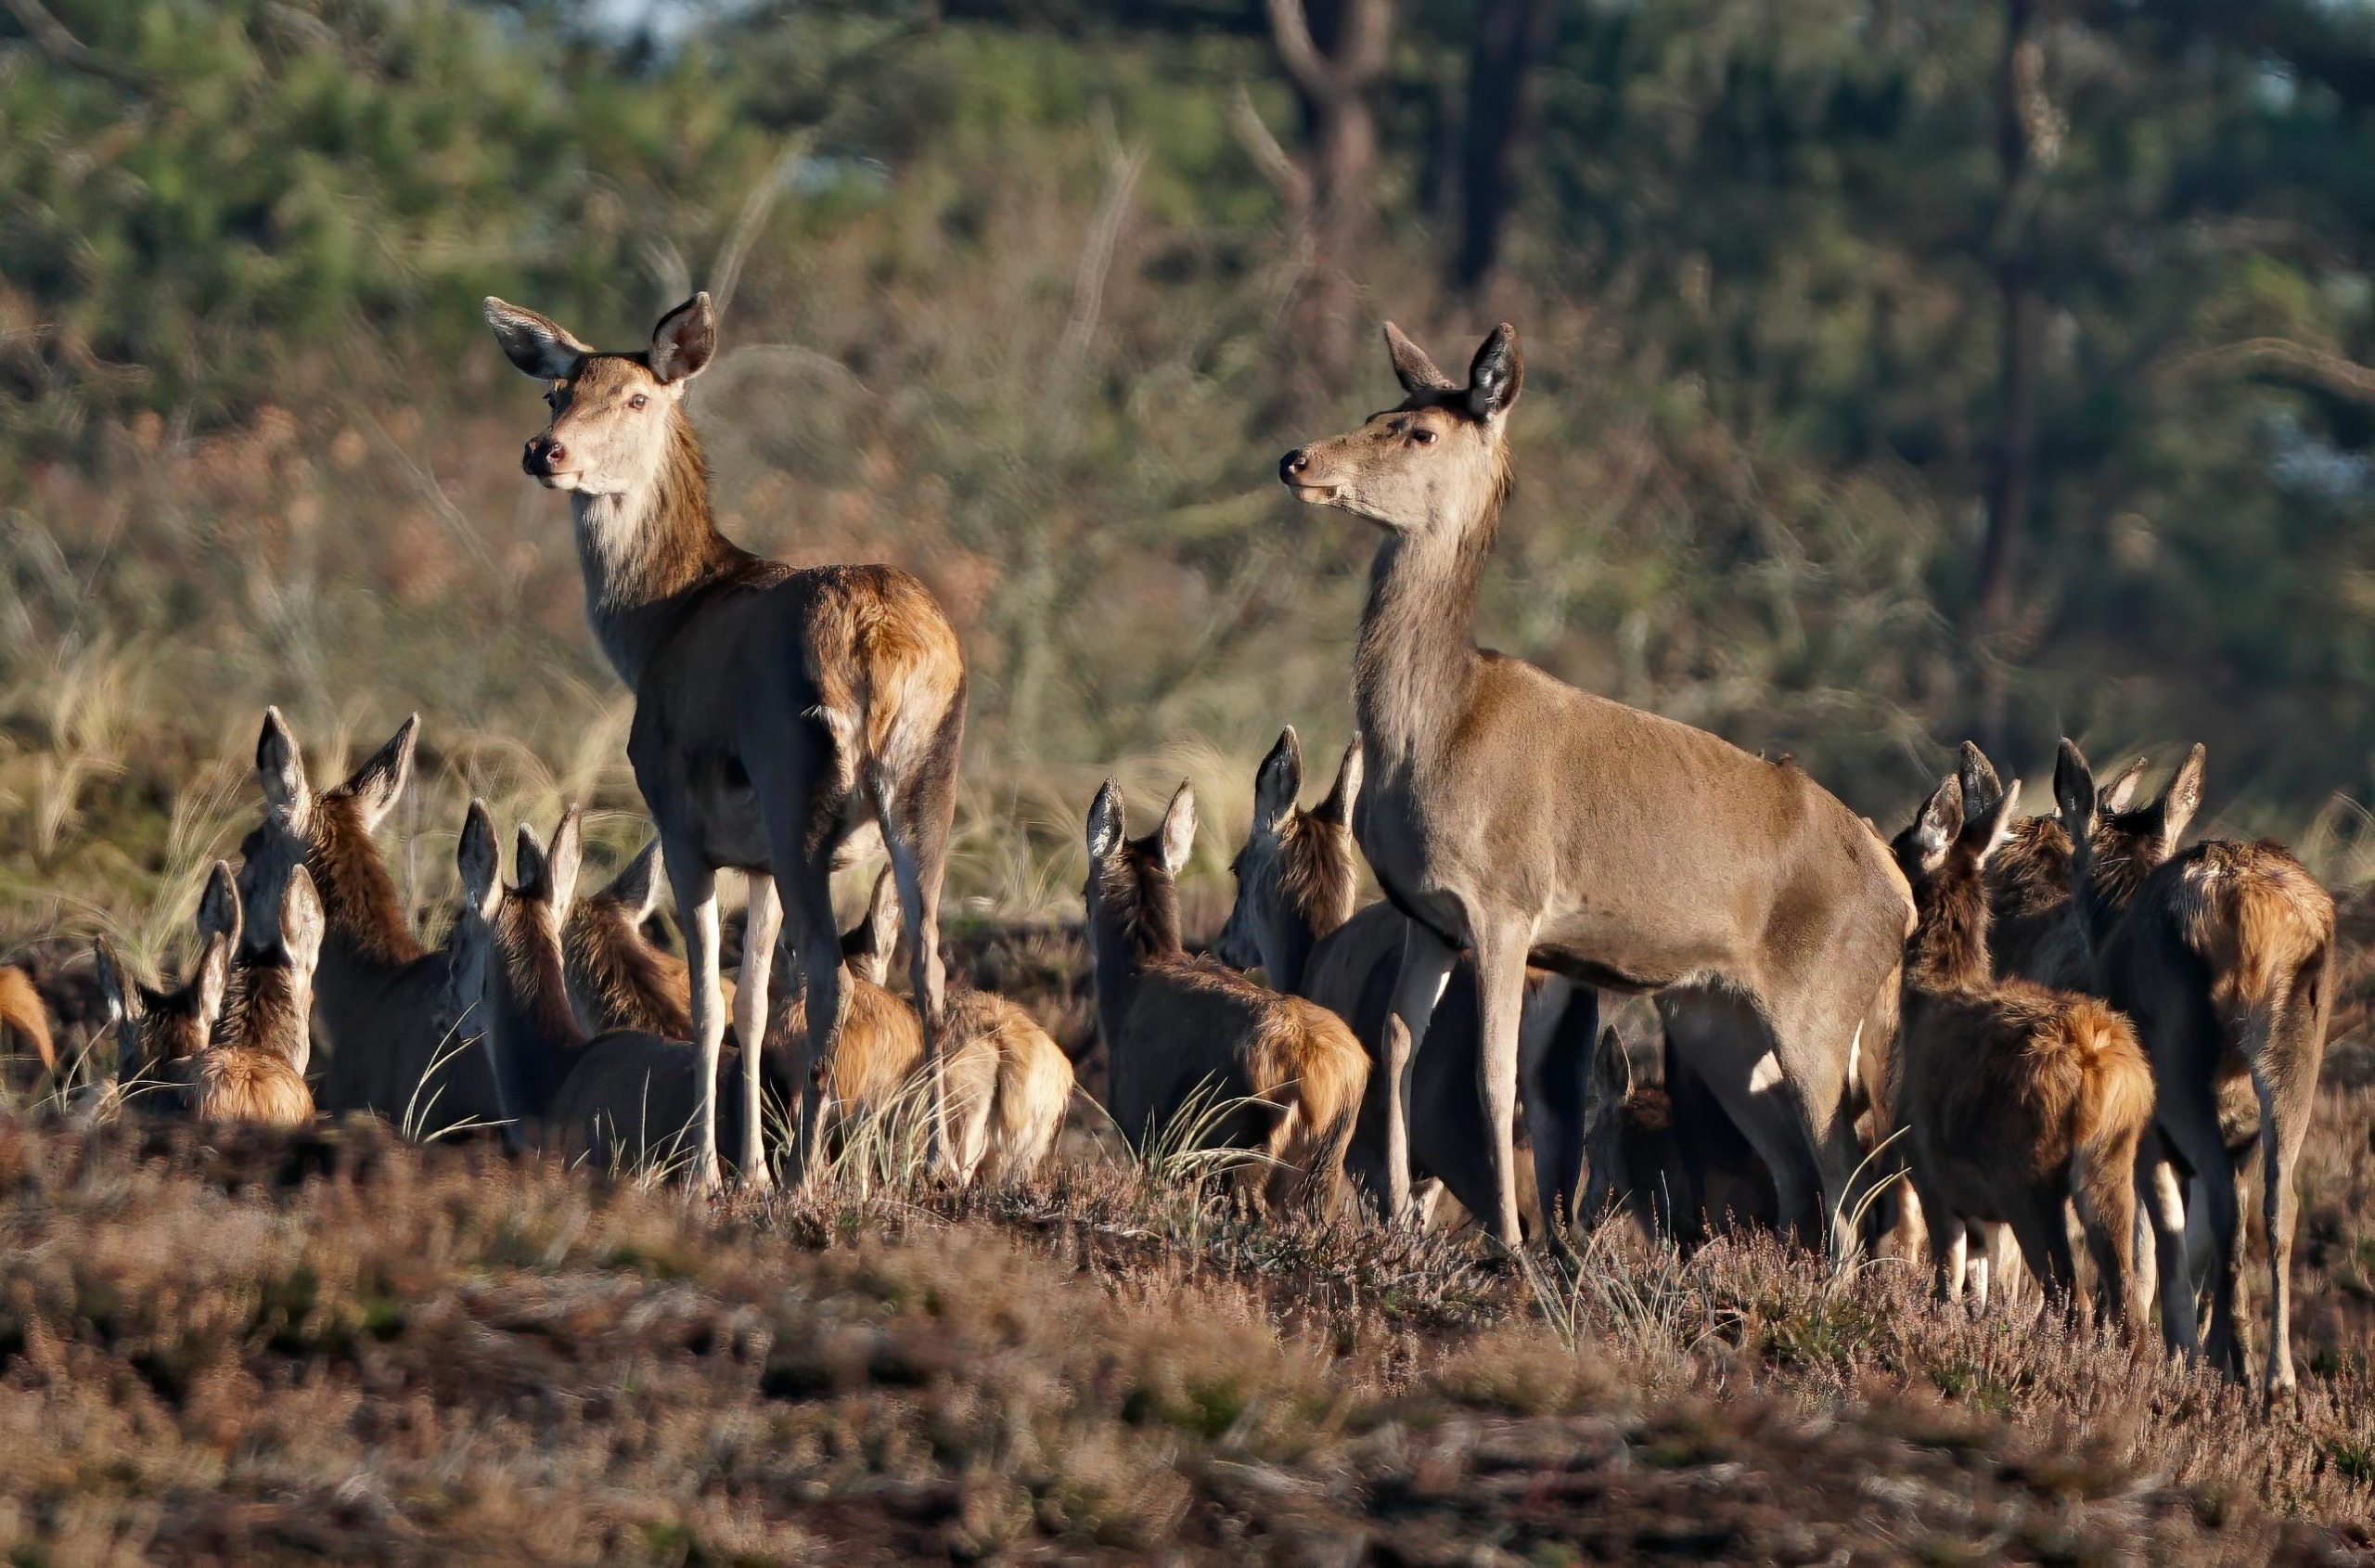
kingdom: Animalia
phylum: Chordata
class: Mammalia
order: Artiodactyla
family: Cervidae
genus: Cervus
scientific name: Cervus elaphus
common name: Krondyr
